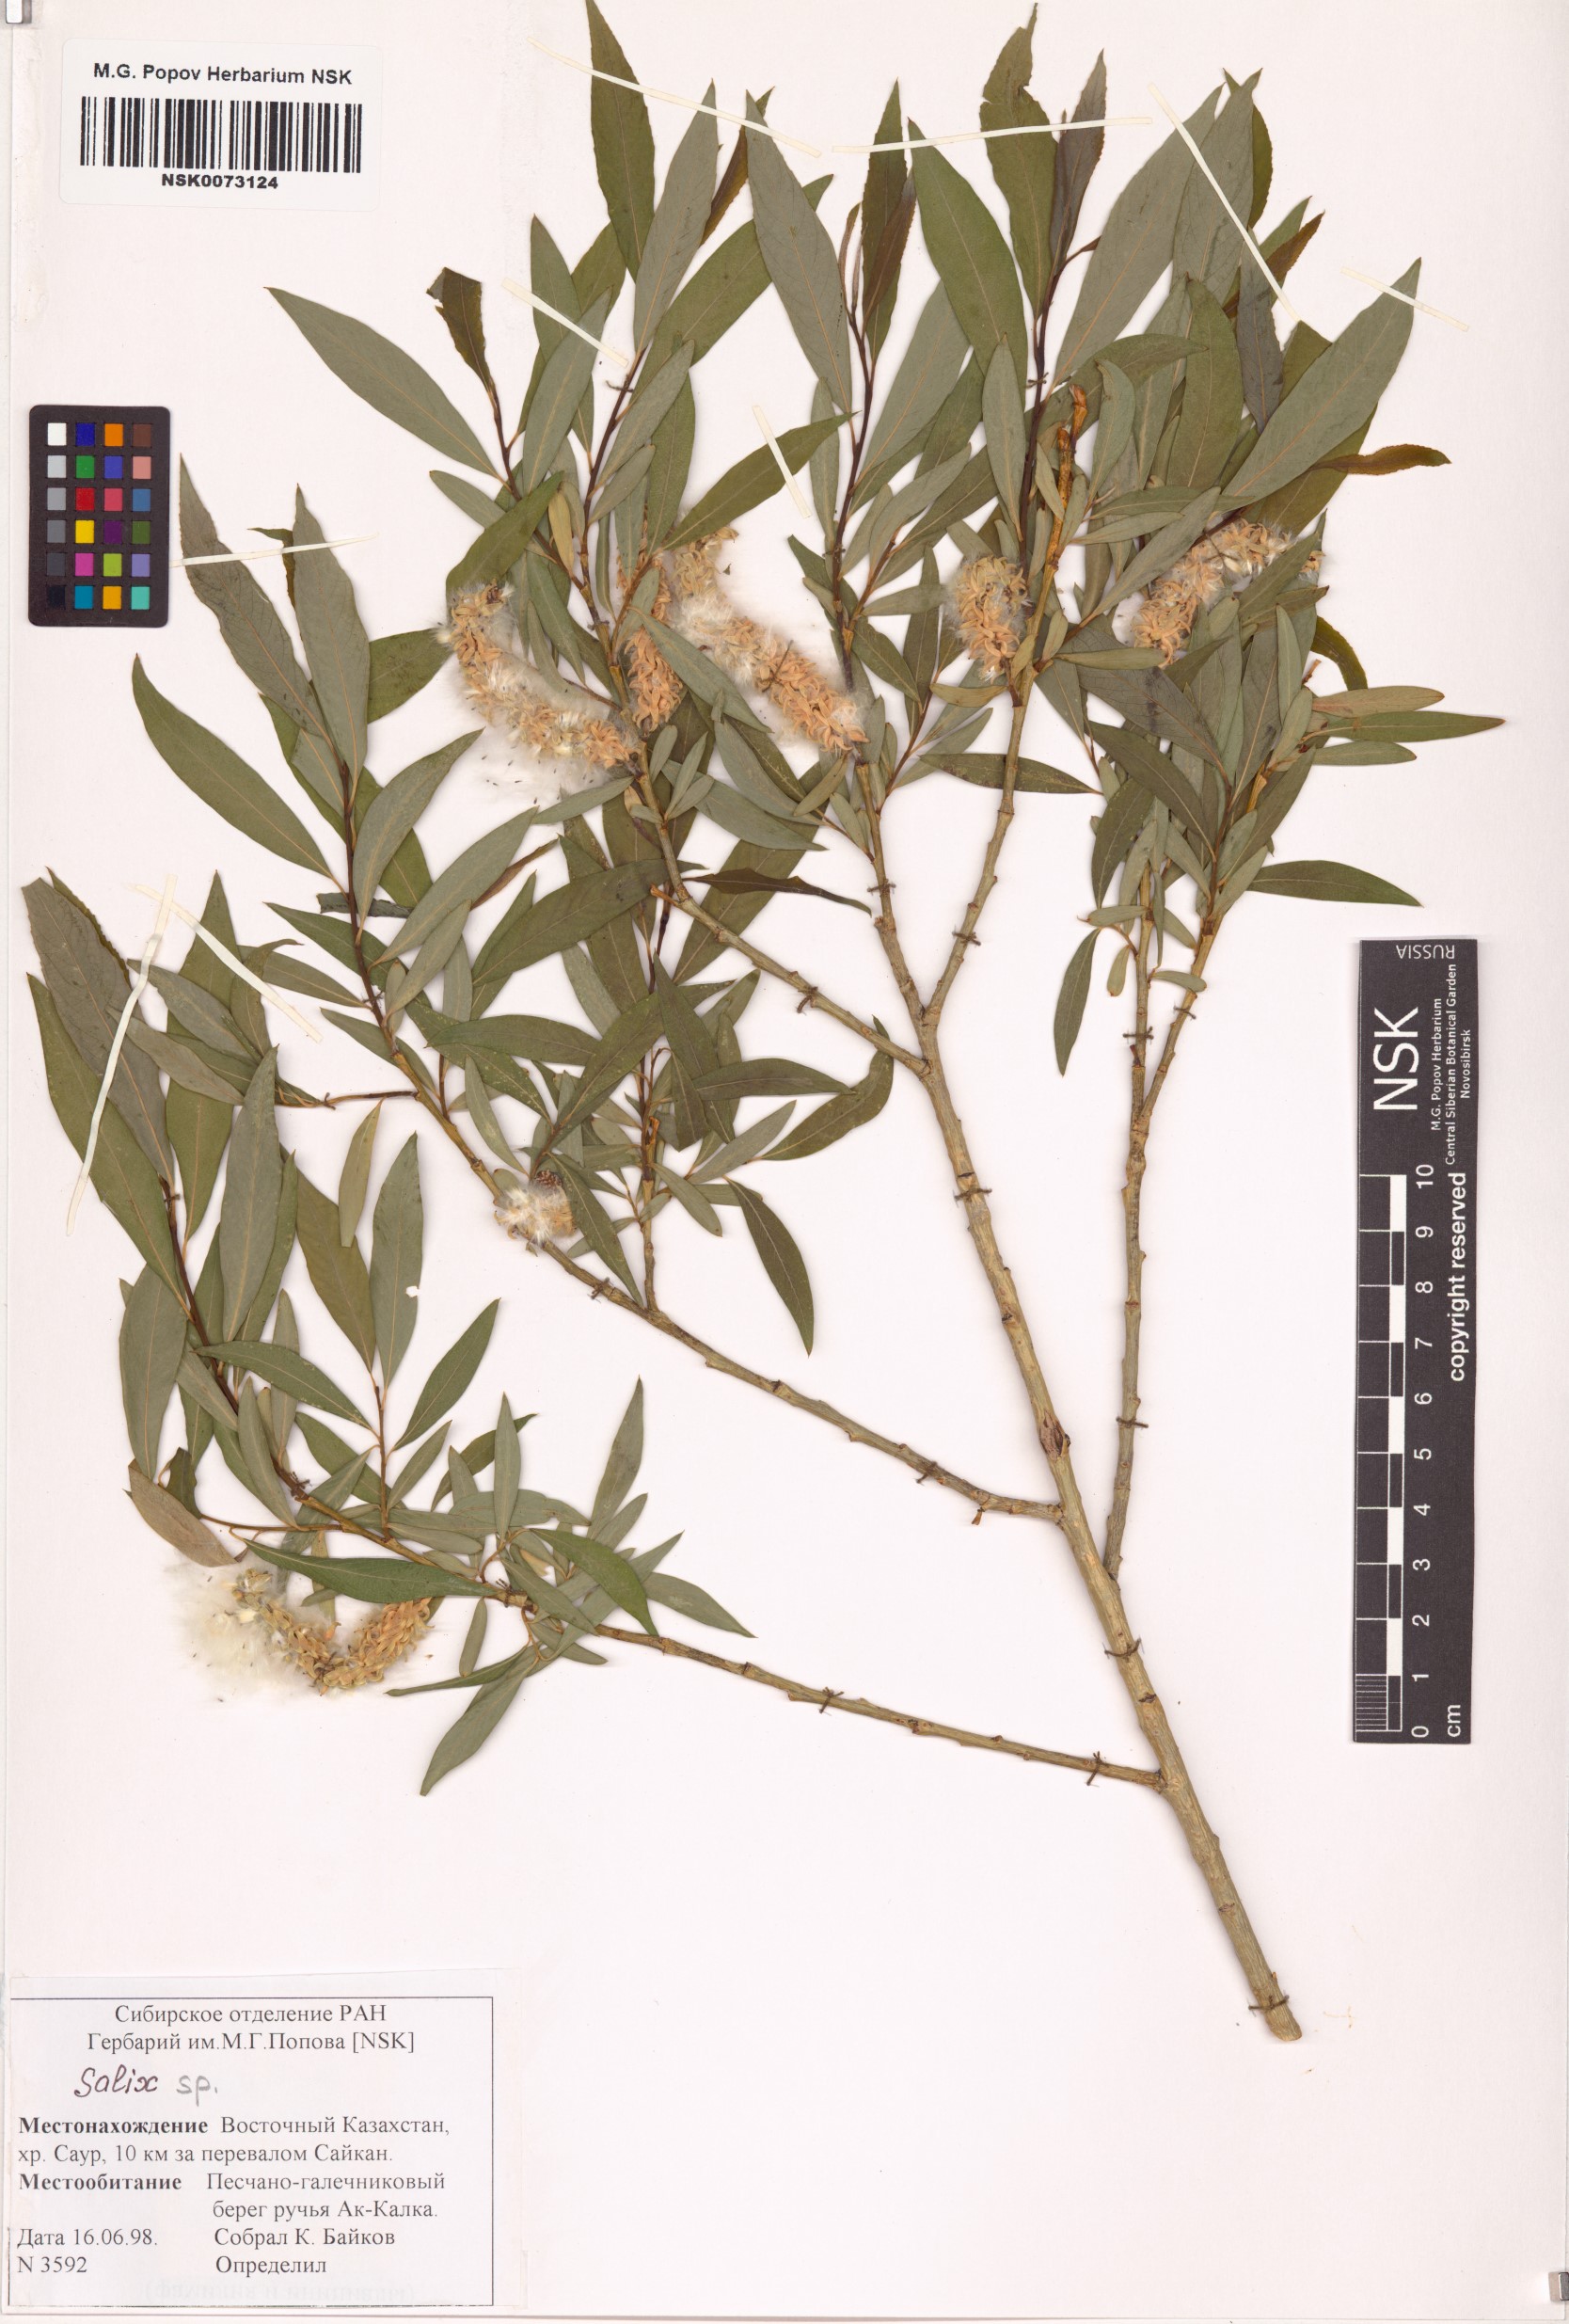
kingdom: Plantae
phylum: Tracheophyta
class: Magnoliopsida
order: Malpighiales
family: Salicaceae
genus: Salix
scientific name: Salix
